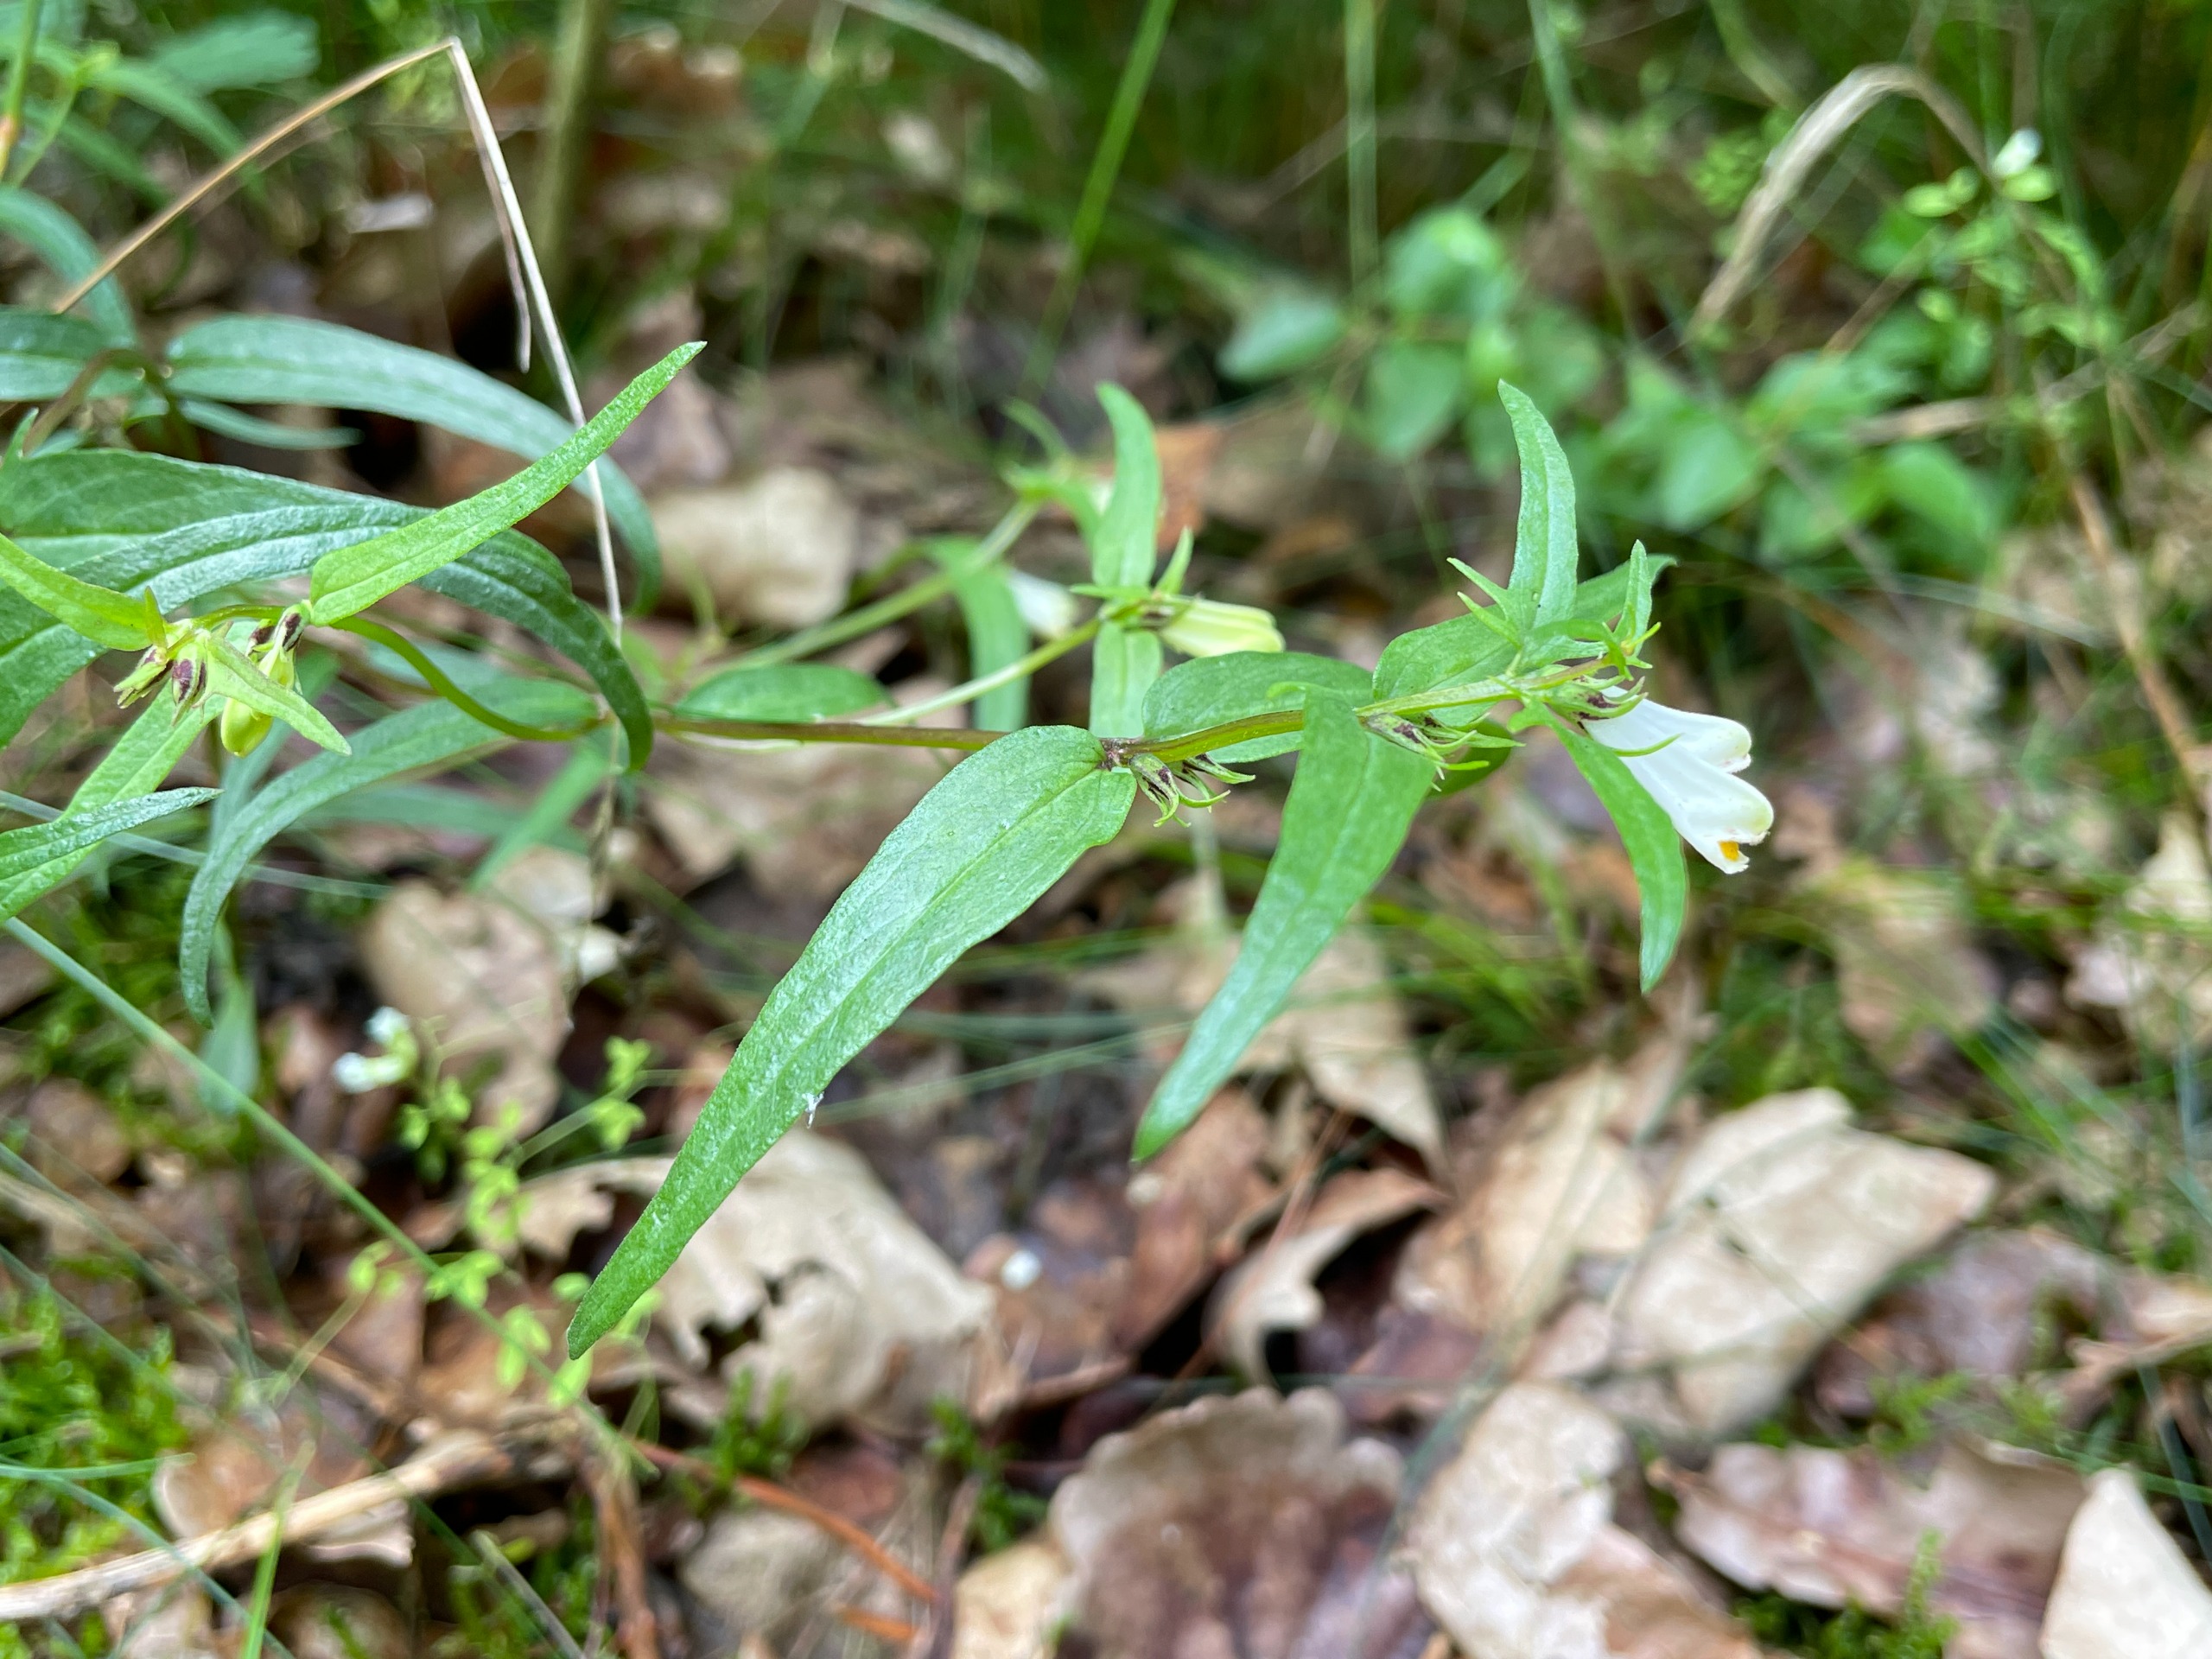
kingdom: Plantae
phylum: Tracheophyta
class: Magnoliopsida
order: Lamiales
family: Orobanchaceae
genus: Melampyrum
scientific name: Melampyrum pratense
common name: Almindelig kohvede
